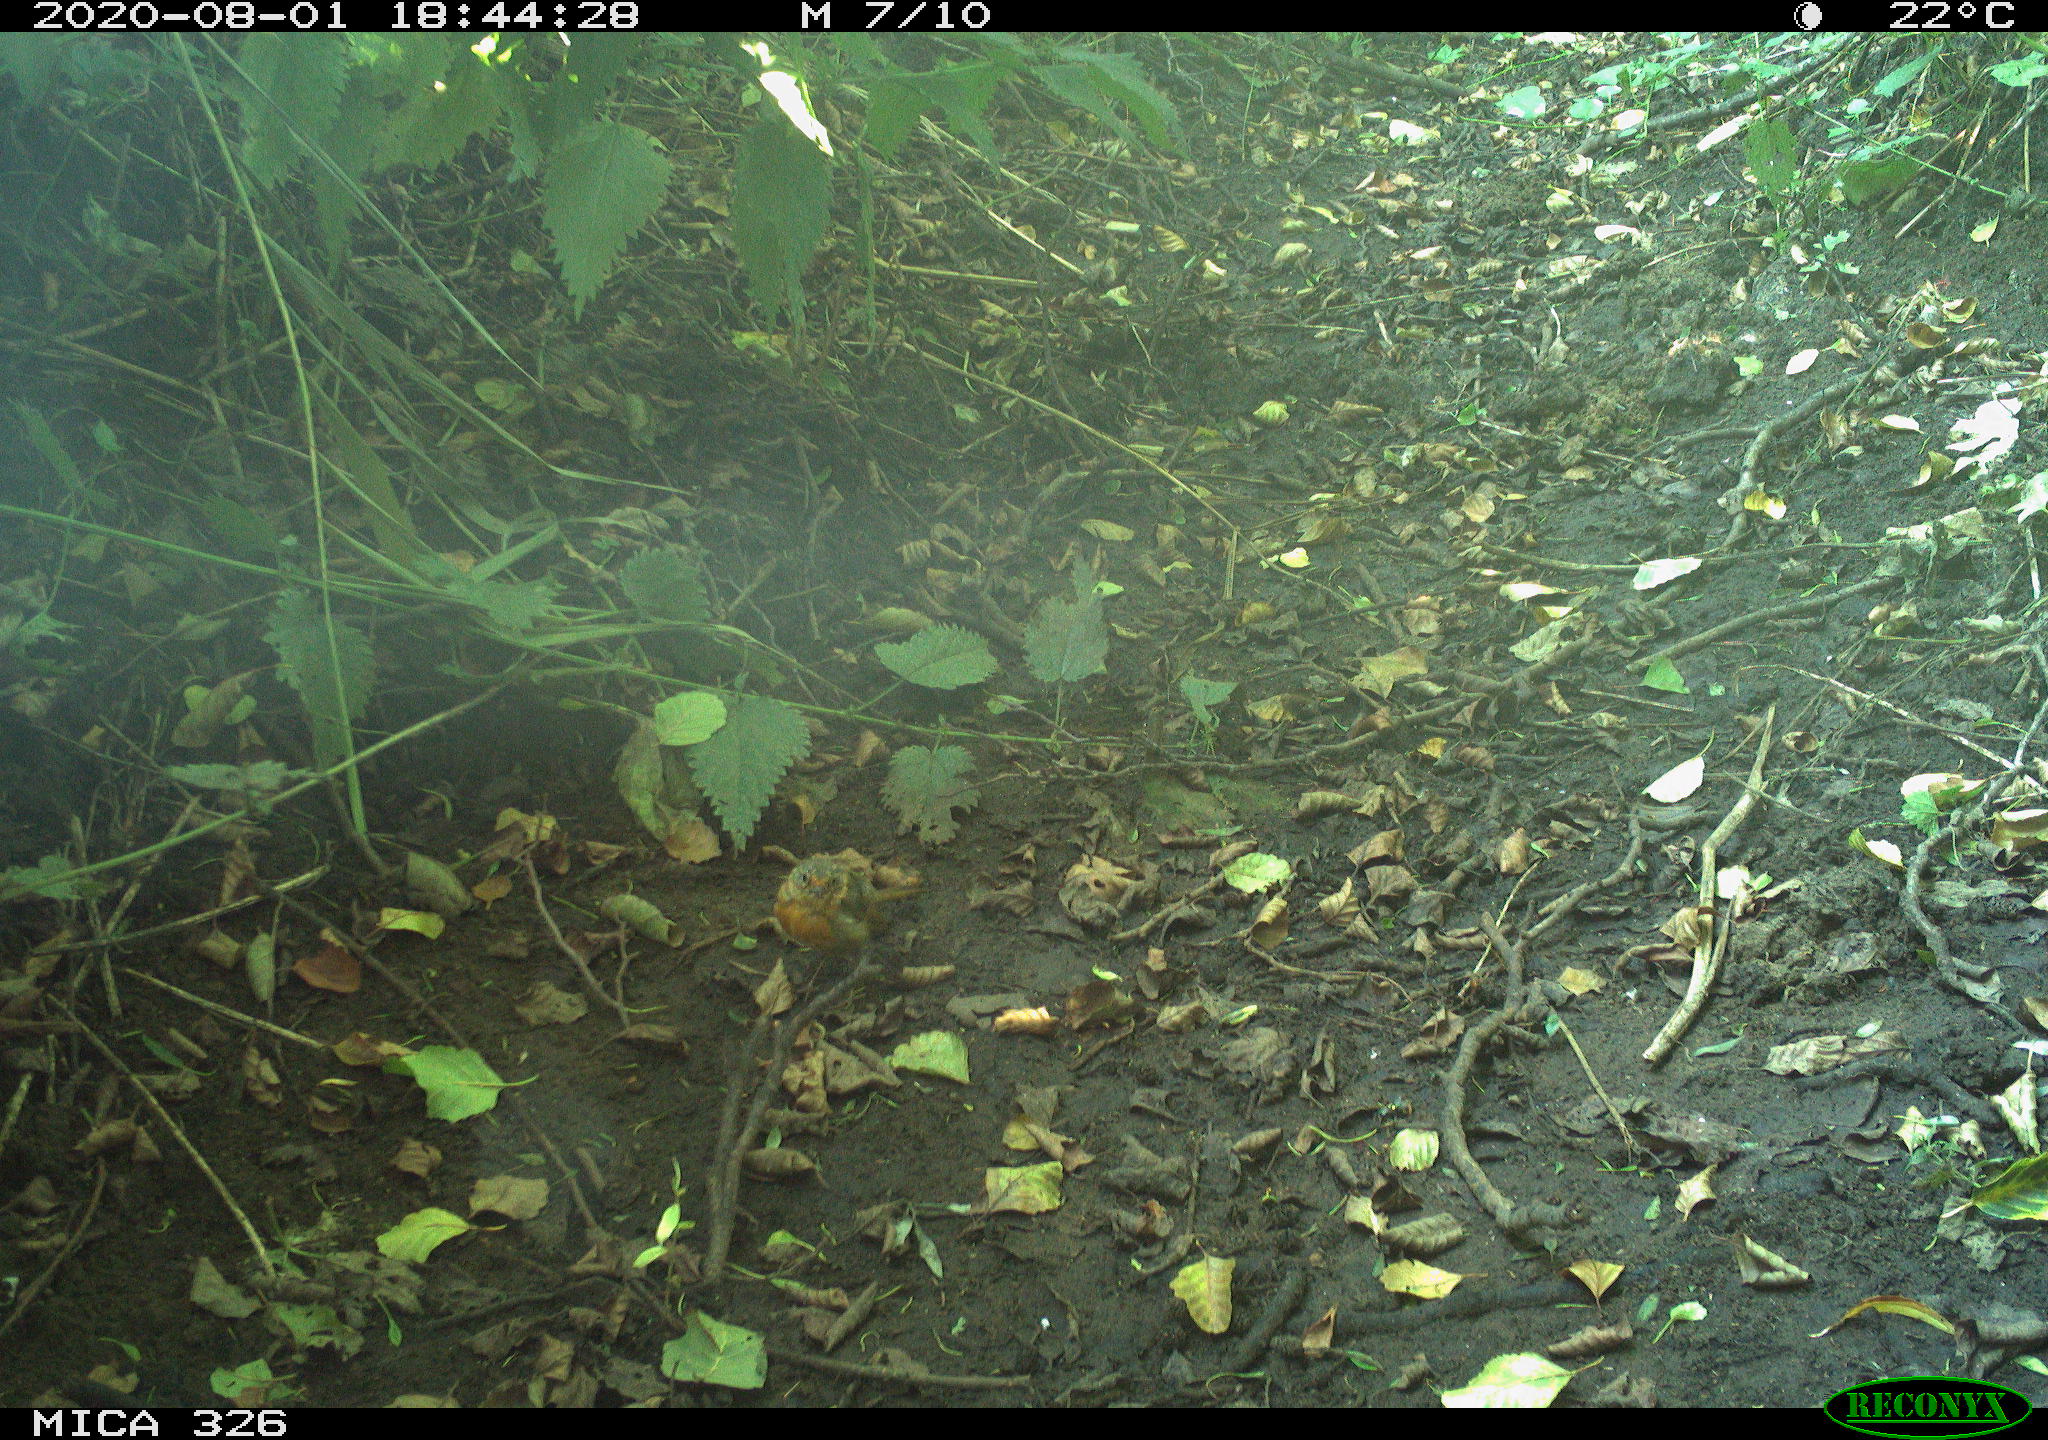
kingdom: Animalia
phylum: Chordata
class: Aves
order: Passeriformes
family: Muscicapidae
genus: Erithacus
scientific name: Erithacus rubecula
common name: European robin
